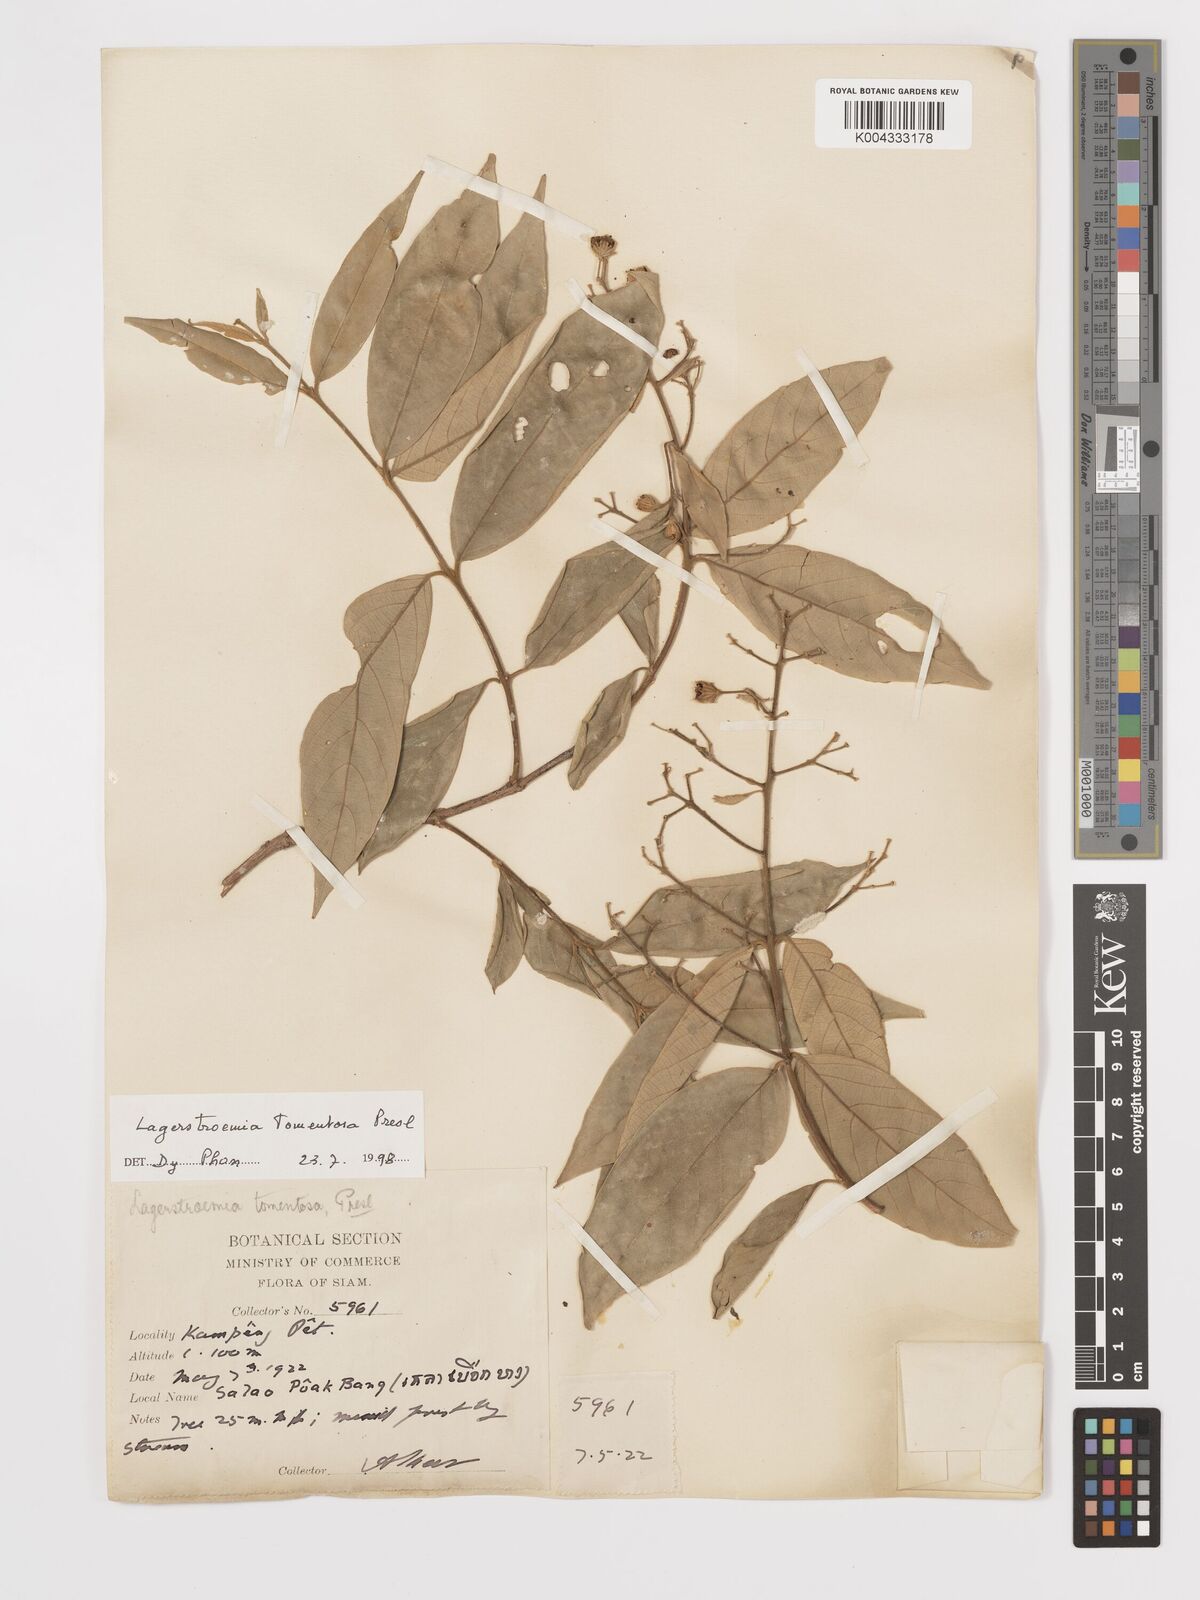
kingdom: Plantae
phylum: Tracheophyta
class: Magnoliopsida
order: Myrtales
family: Lythraceae
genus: Lagerstroemia
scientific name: Lagerstroemia tomentosa
